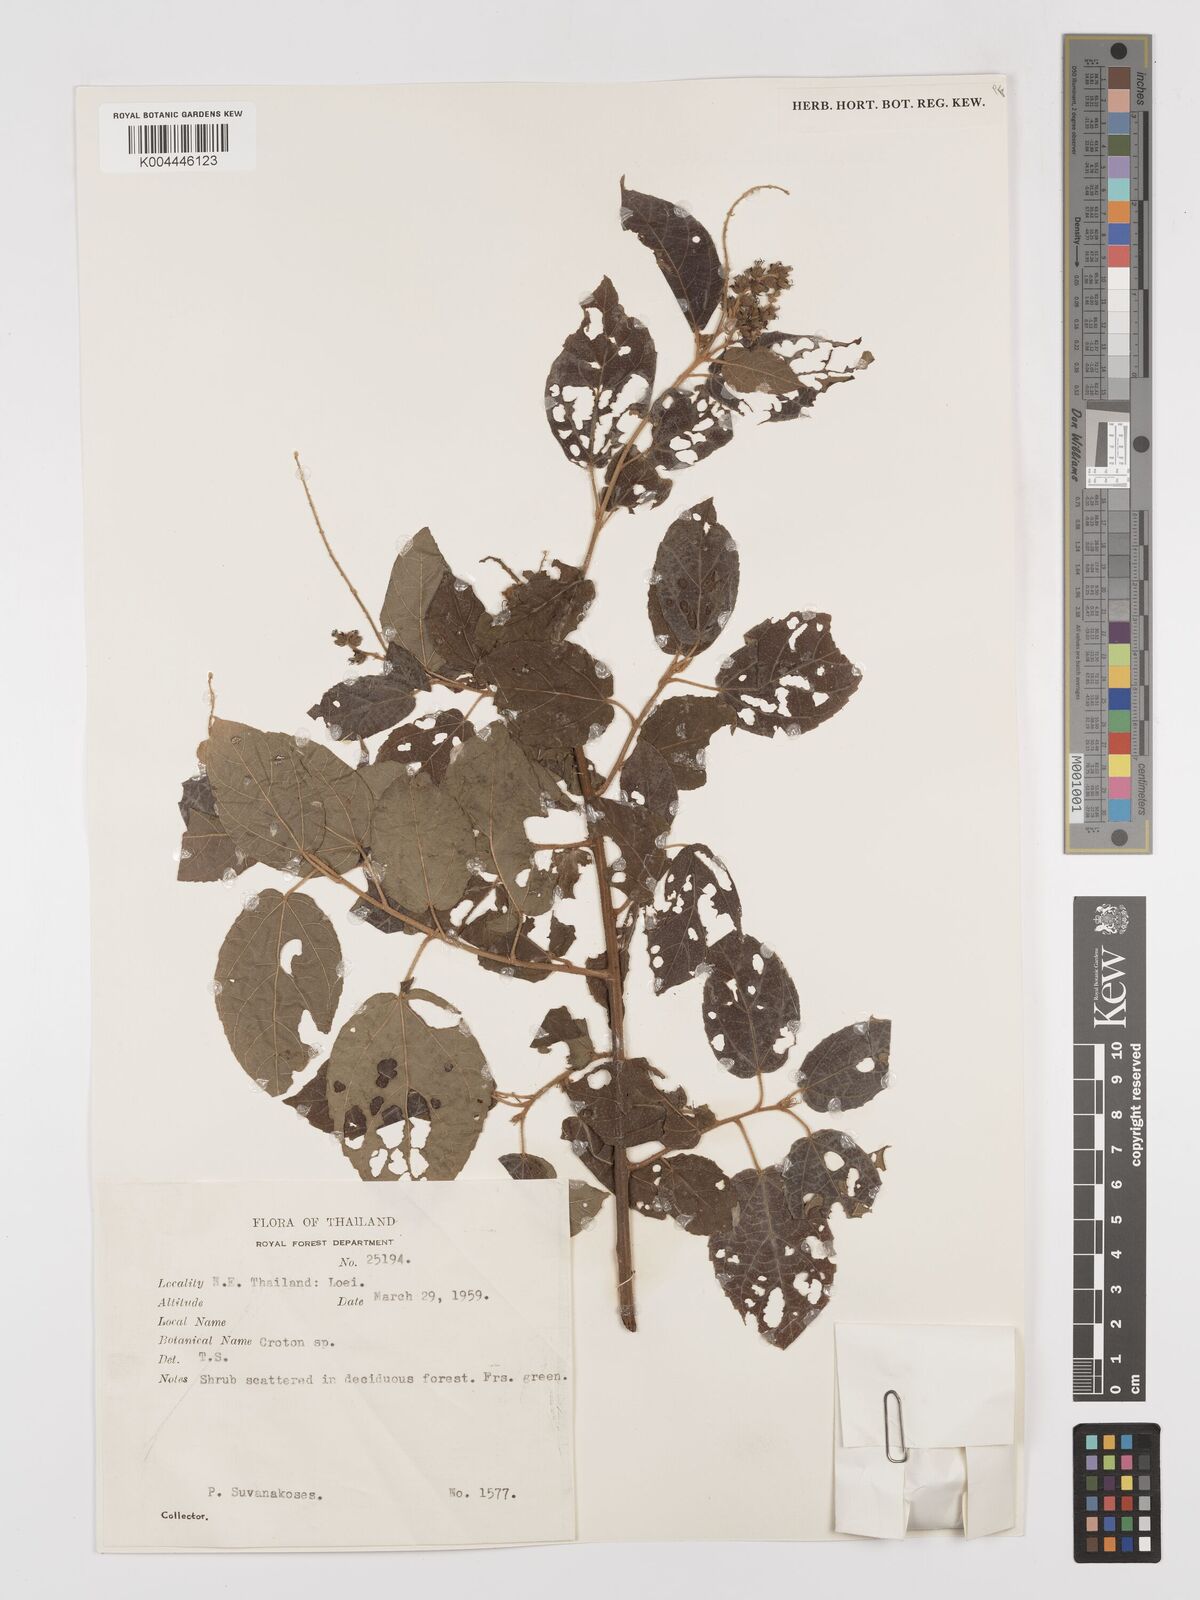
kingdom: Plantae
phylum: Tracheophyta
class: Magnoliopsida
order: Malpighiales
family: Euphorbiaceae
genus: Croton
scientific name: Croton caudatus
